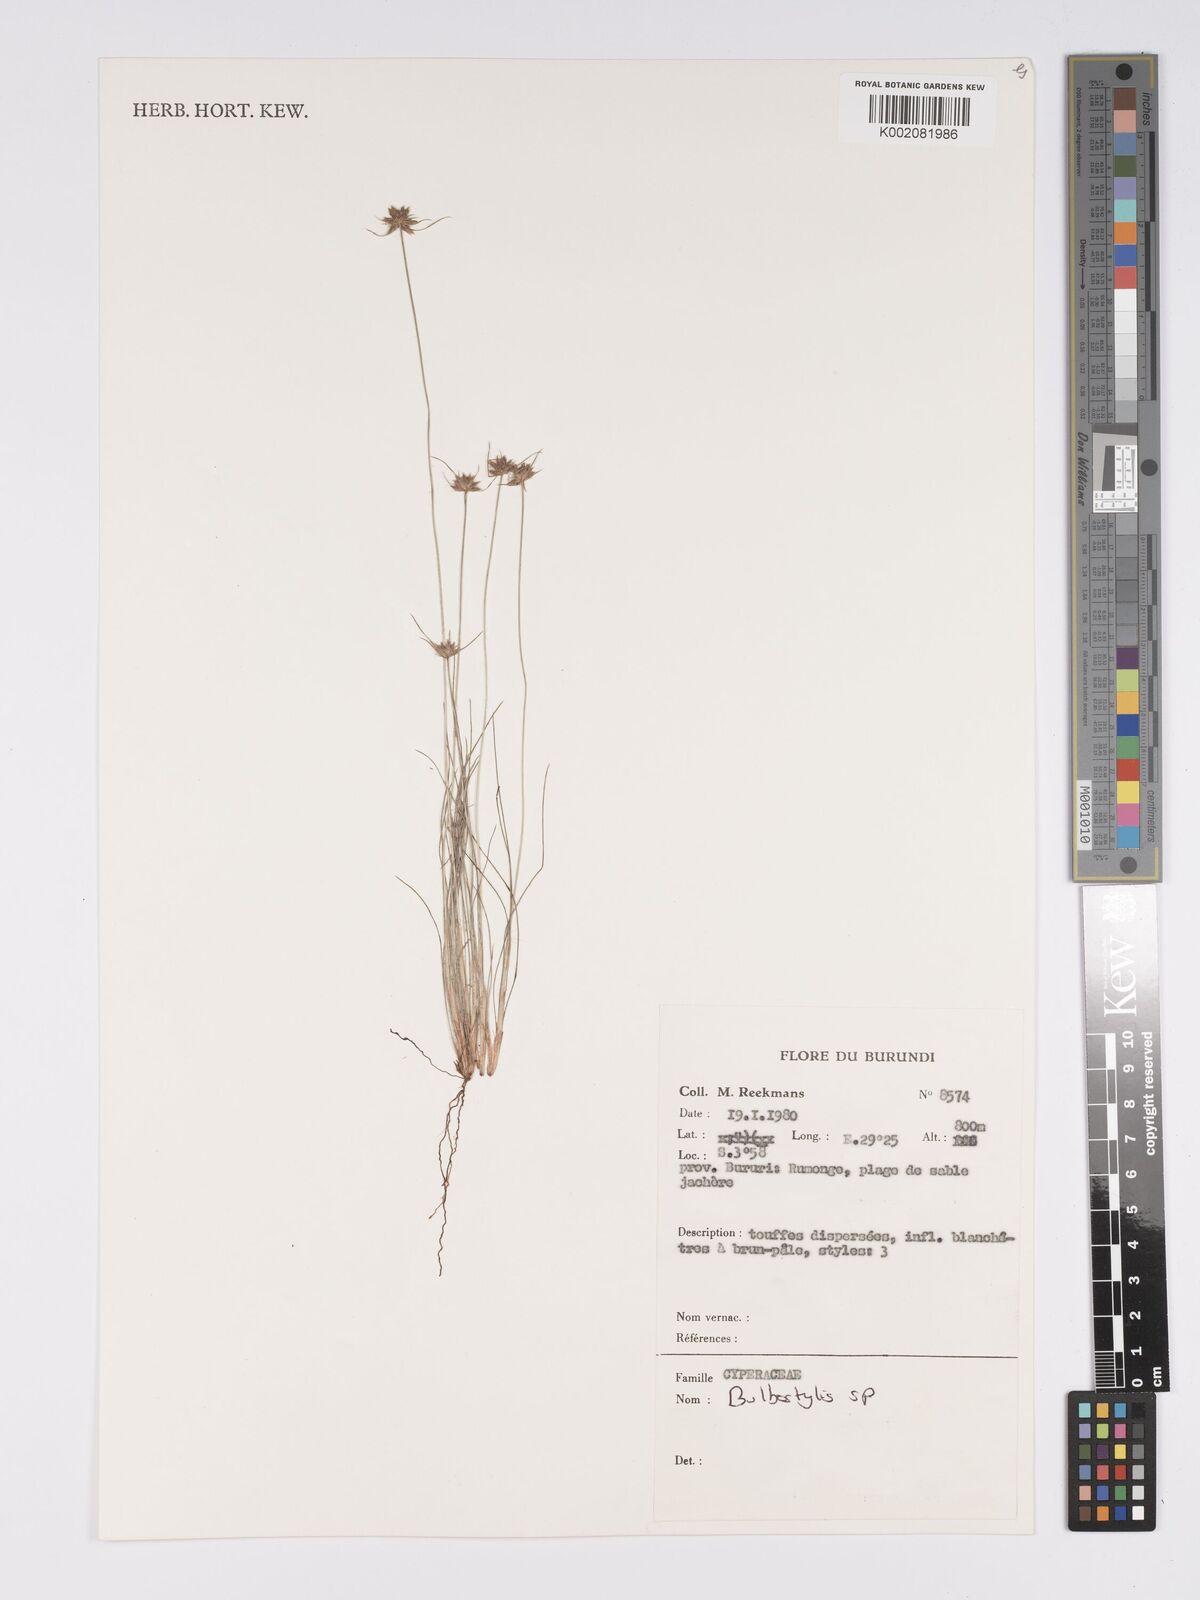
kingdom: Plantae
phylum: Tracheophyta
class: Magnoliopsida
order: Asterales
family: Asteraceae
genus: Bulbostylis
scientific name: Bulbostylis
